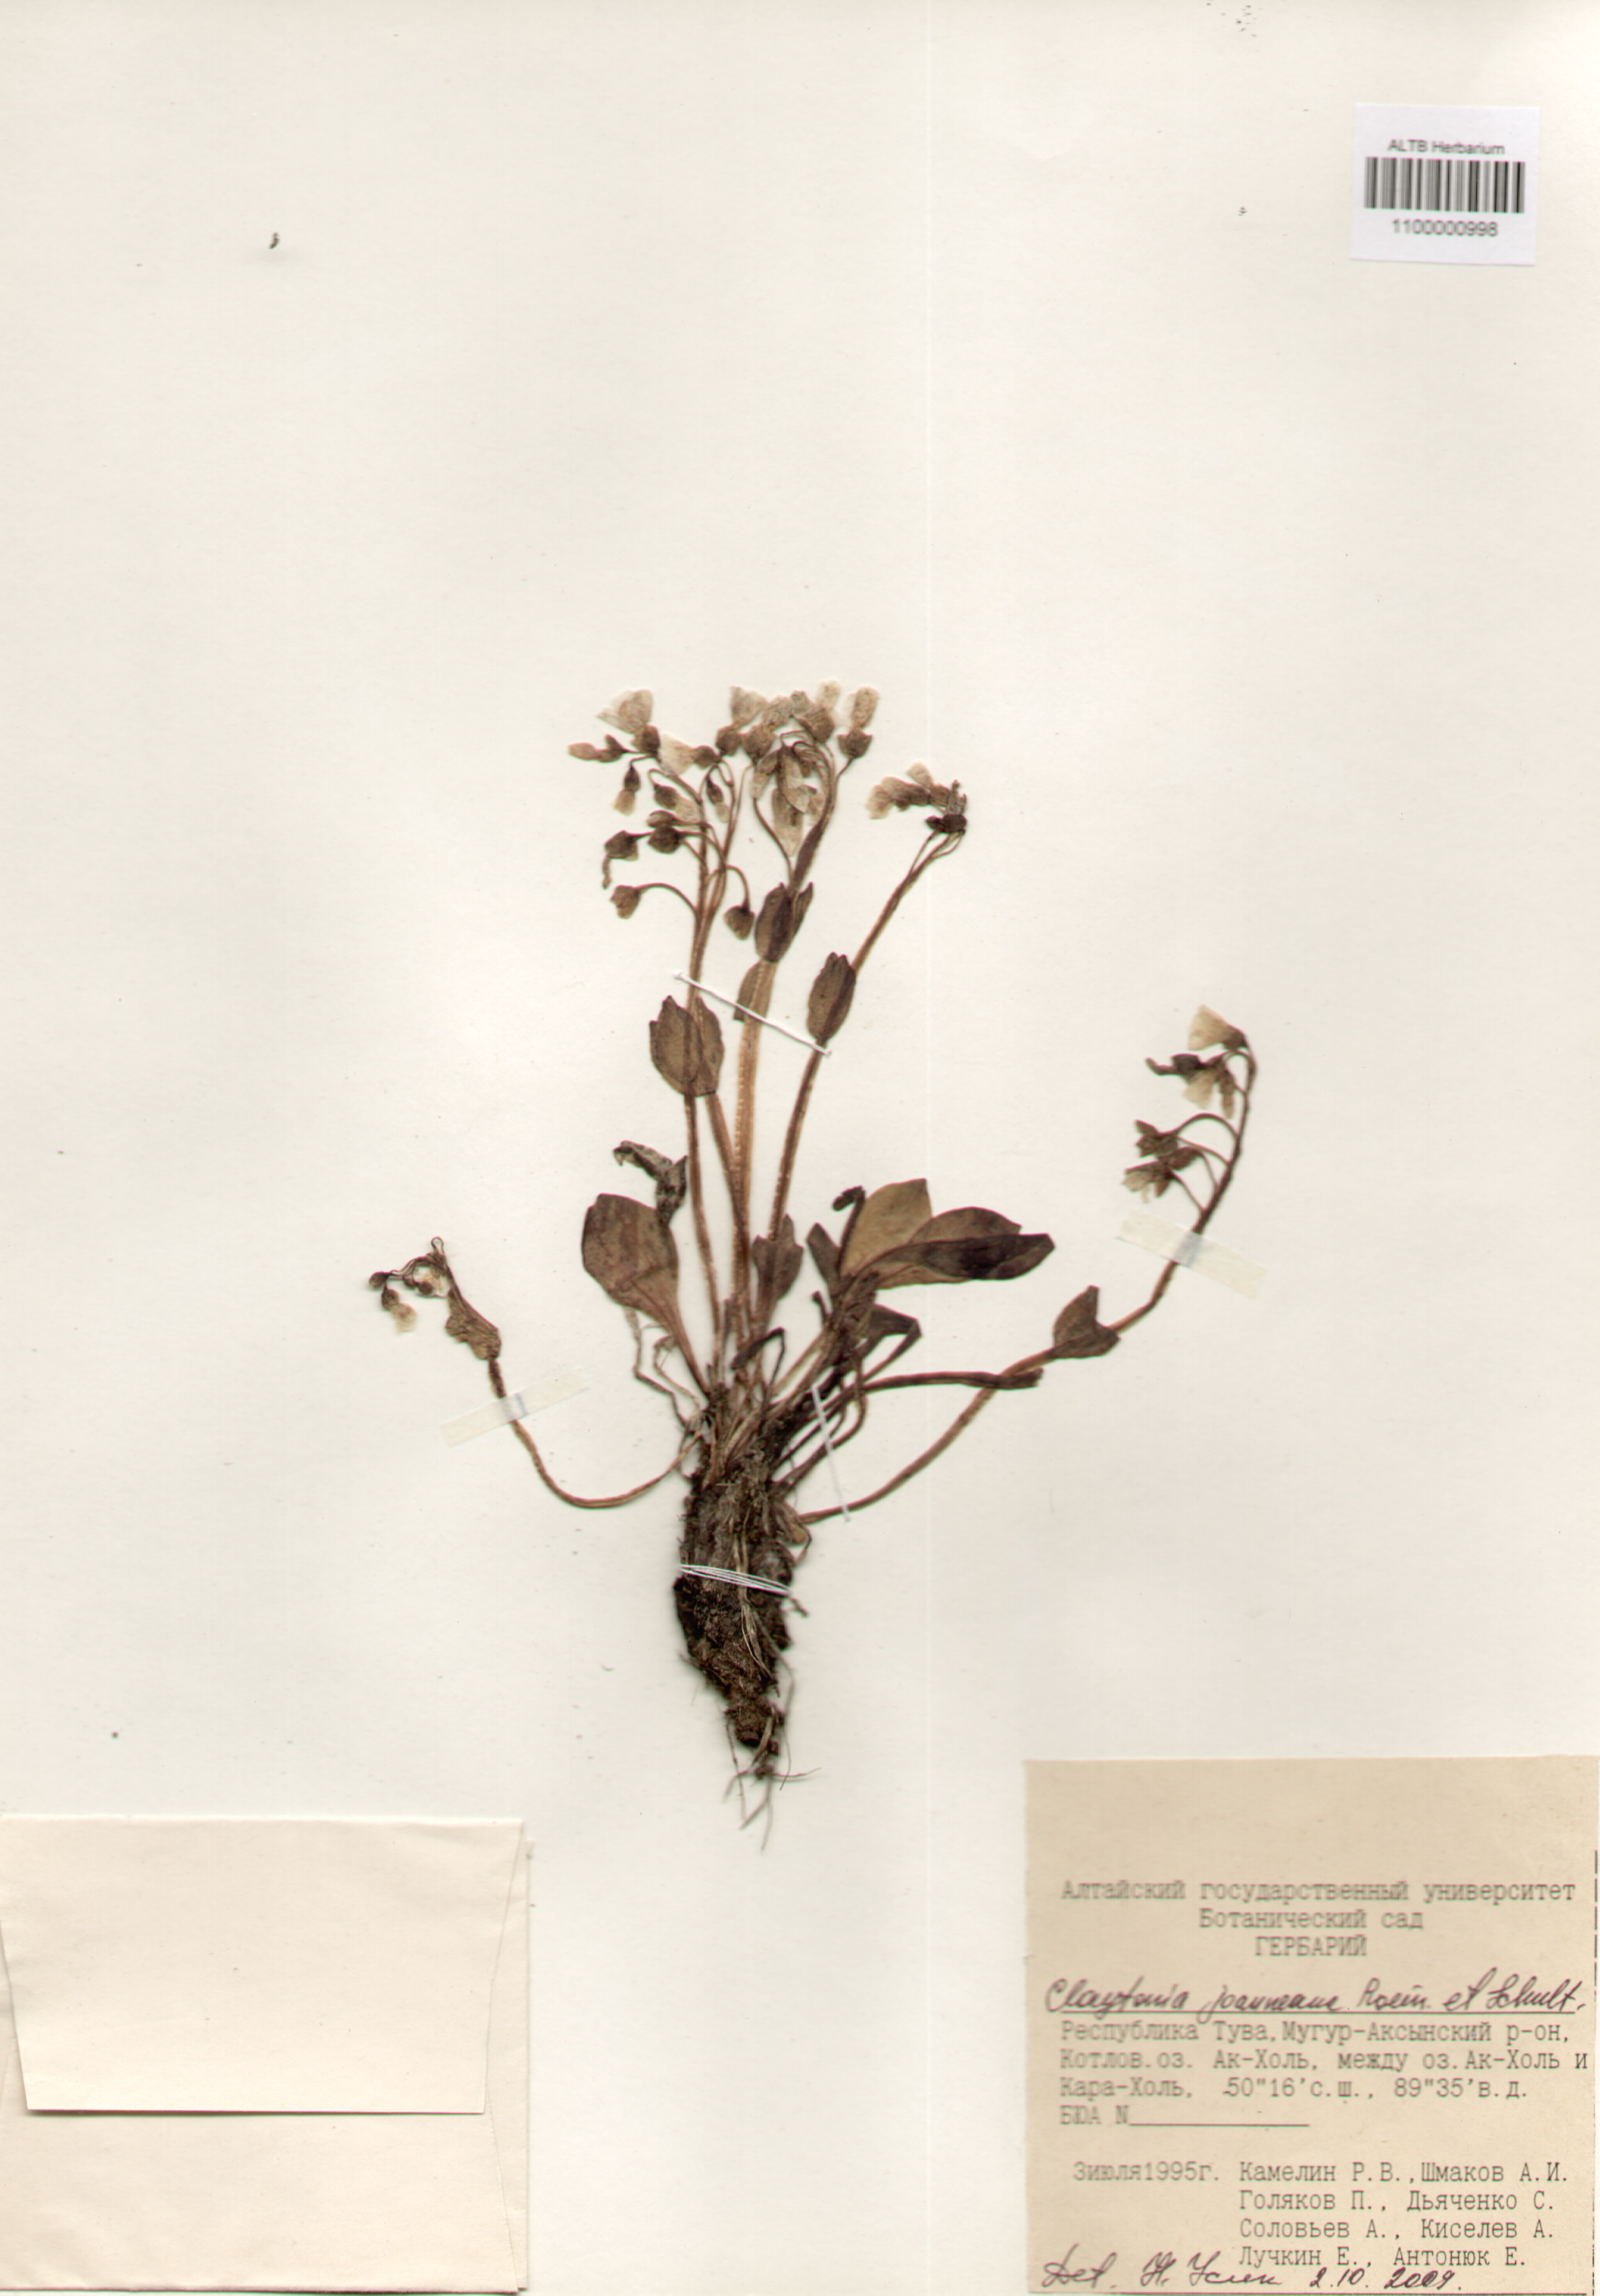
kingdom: Plantae
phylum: Tracheophyta
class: Magnoliopsida
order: Caryophyllales
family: Montiaceae
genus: Claytonia
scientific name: Claytonia joanneana
